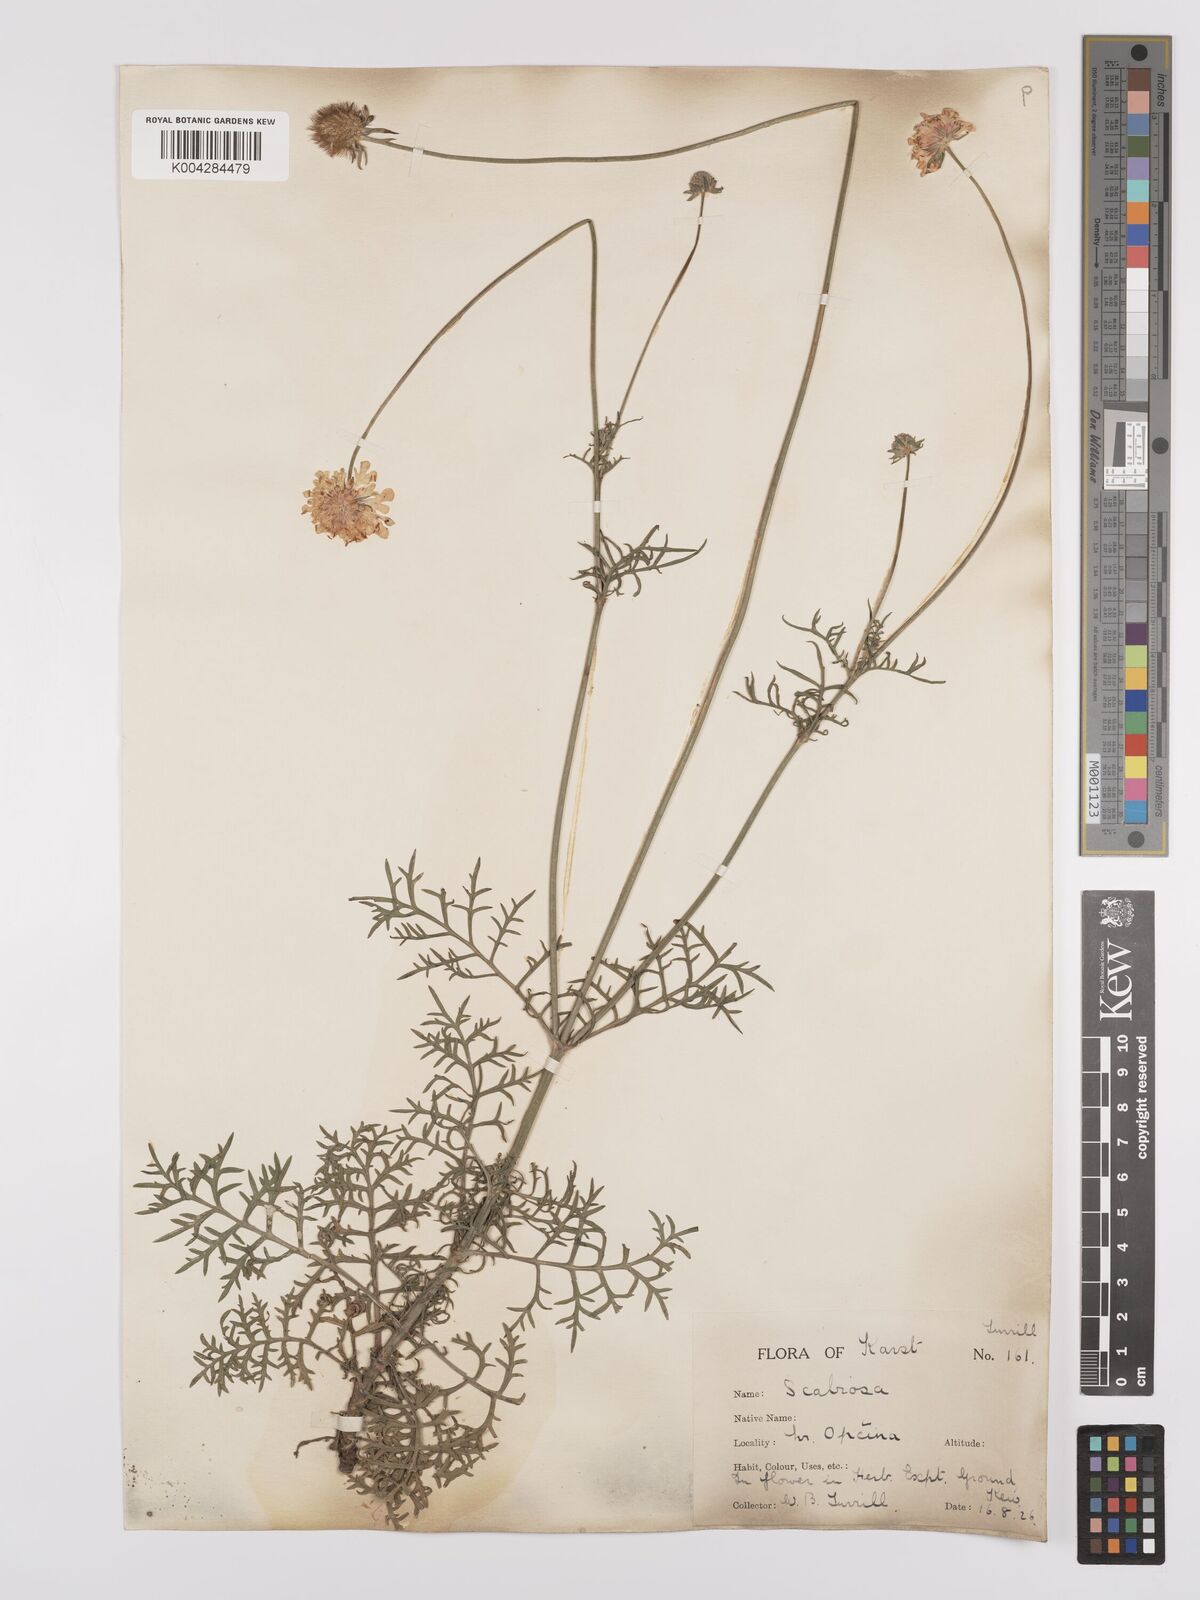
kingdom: Plantae
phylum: Tracheophyta
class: Magnoliopsida
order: Dipsacales
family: Caprifoliaceae
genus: Sixalix
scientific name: Sixalix maritima
